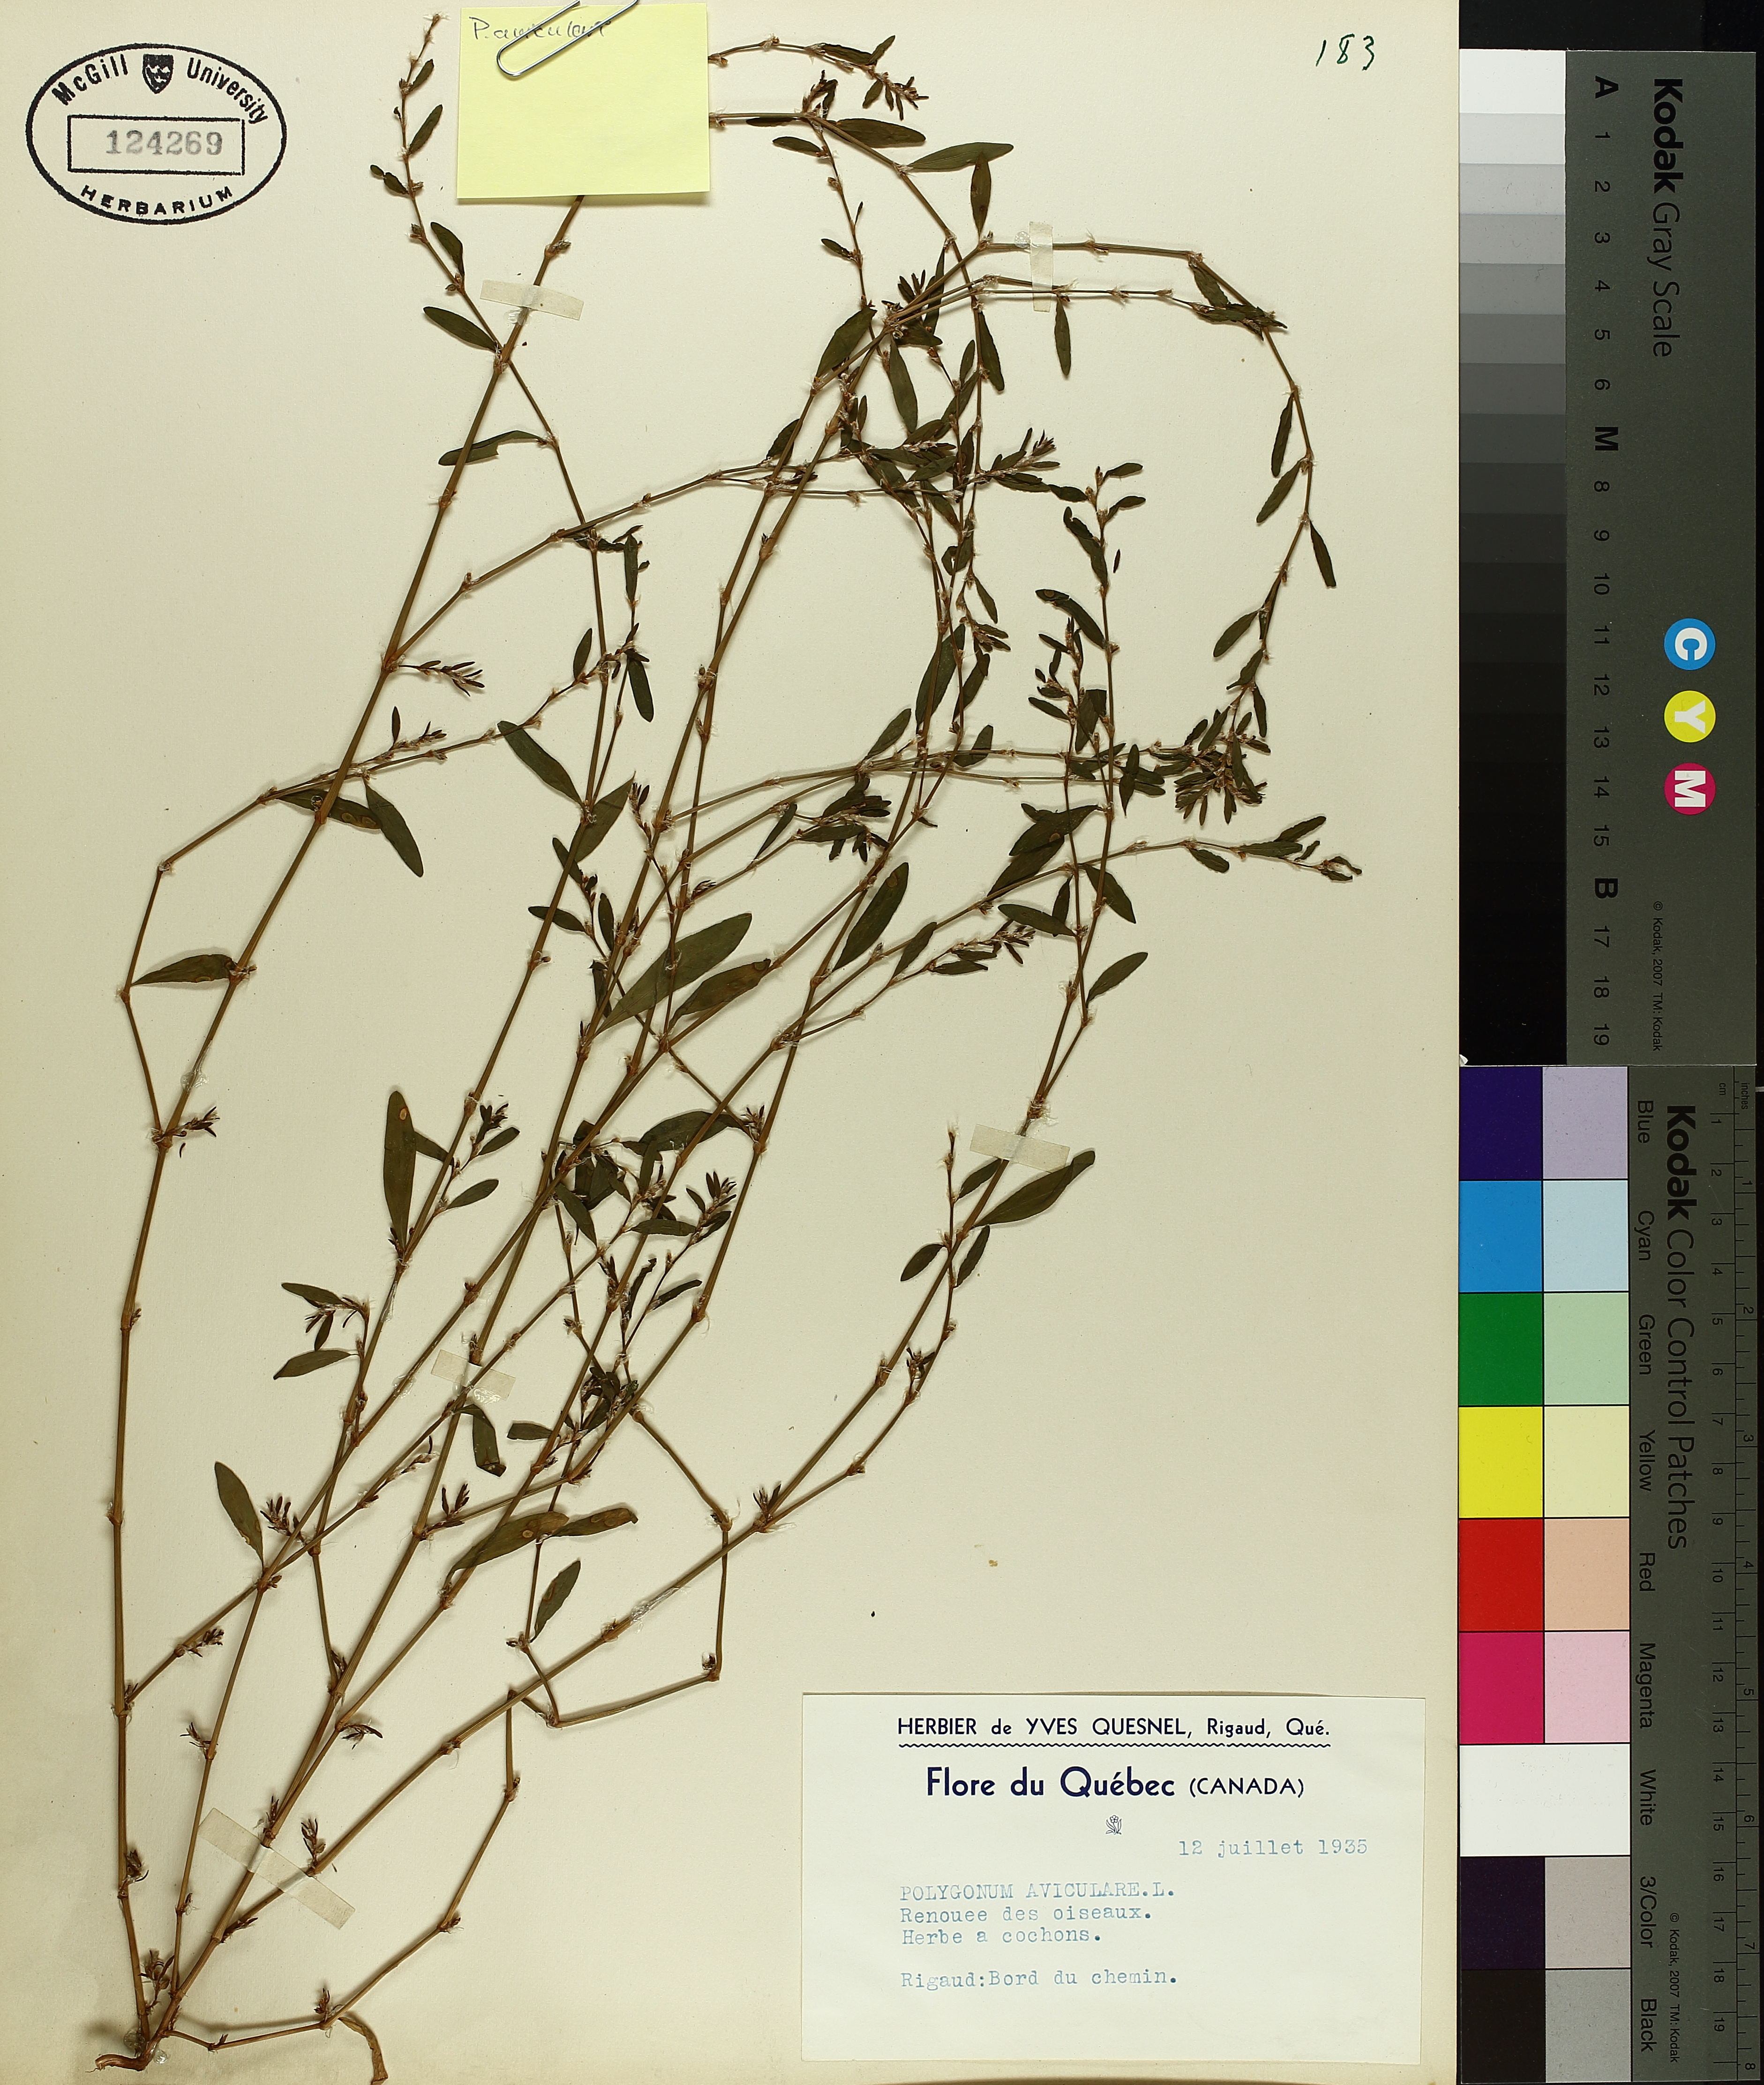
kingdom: Plantae
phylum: Tracheophyta
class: Magnoliopsida
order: Caryophyllales
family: Polygonaceae
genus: Polygonum
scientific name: Polygonum aviculare
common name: Prostrate knotweed
